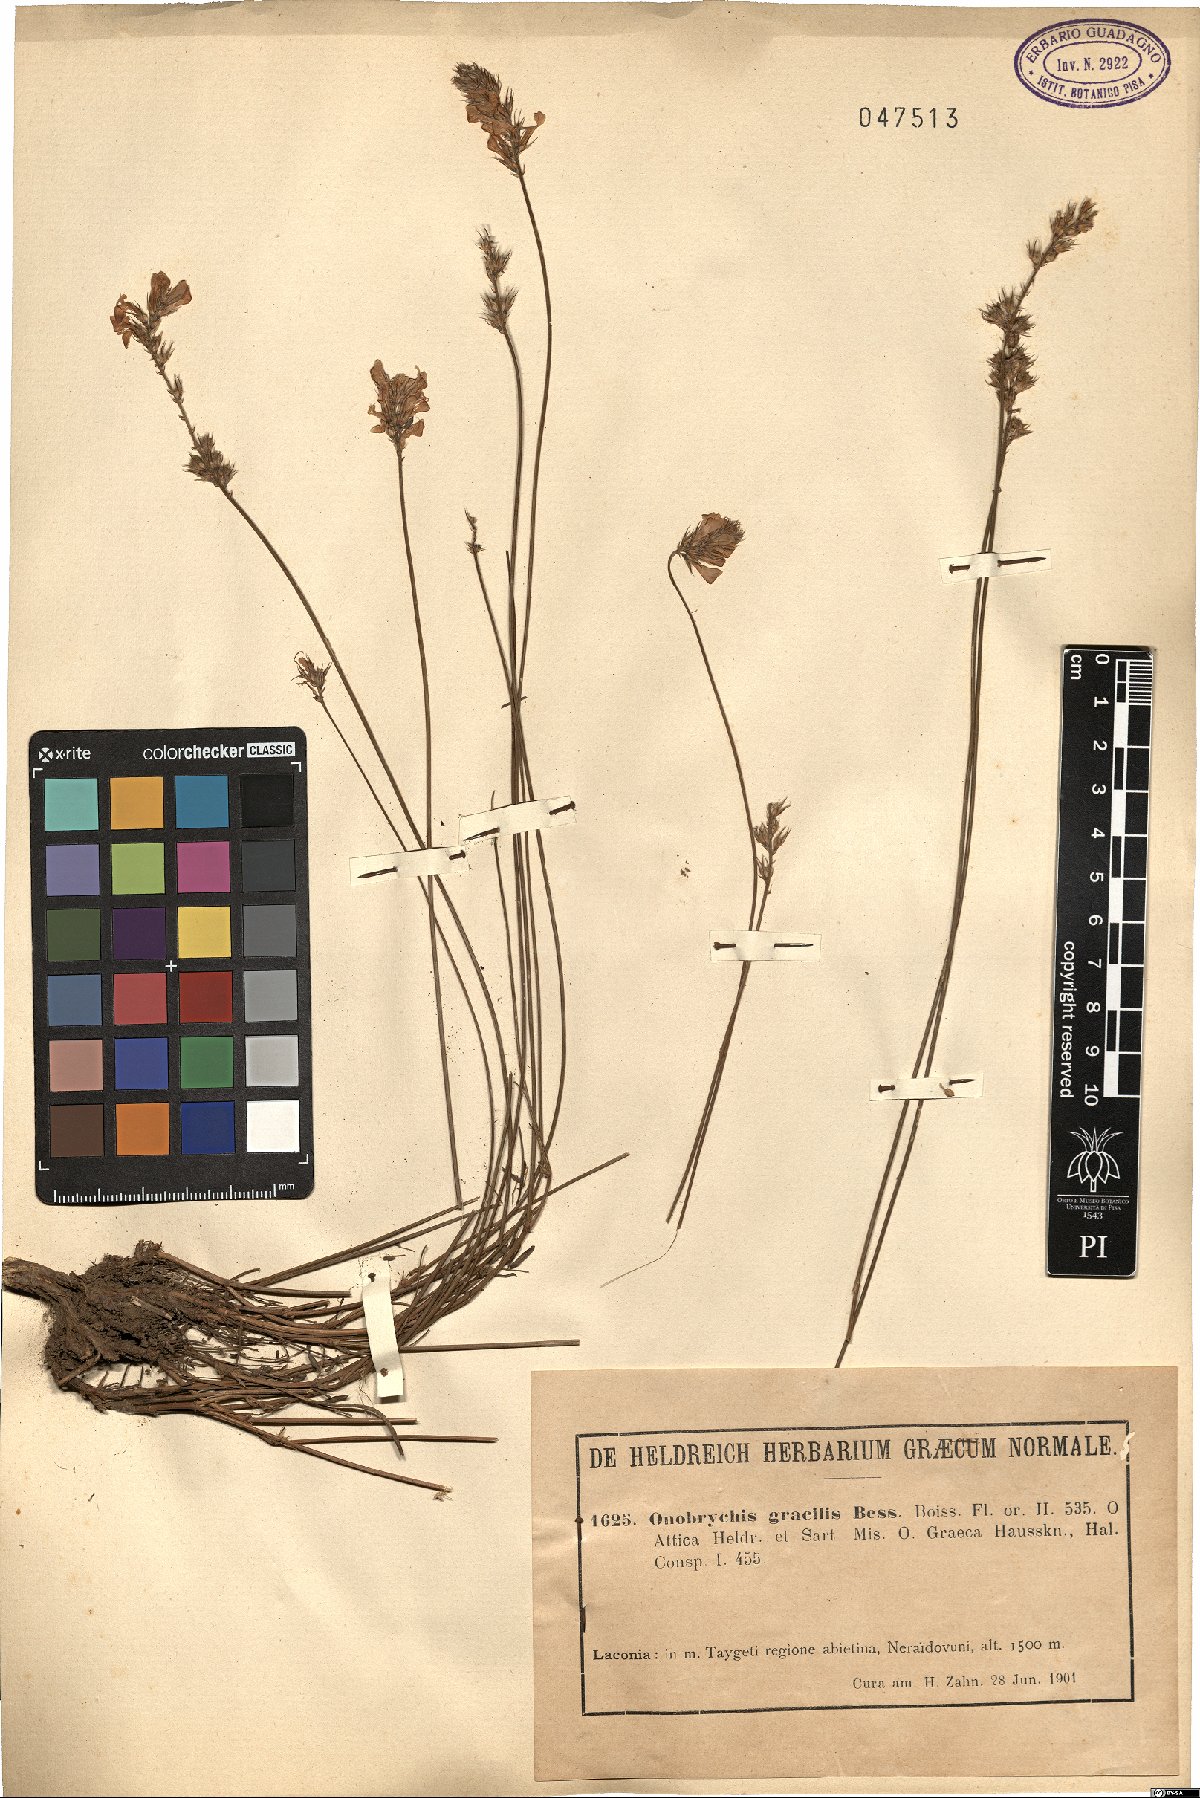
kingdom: Plantae
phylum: Tracheophyta
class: Magnoliopsida
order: Fabales
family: Fabaceae
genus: Onobrychis
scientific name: Onobrychis gracilis
